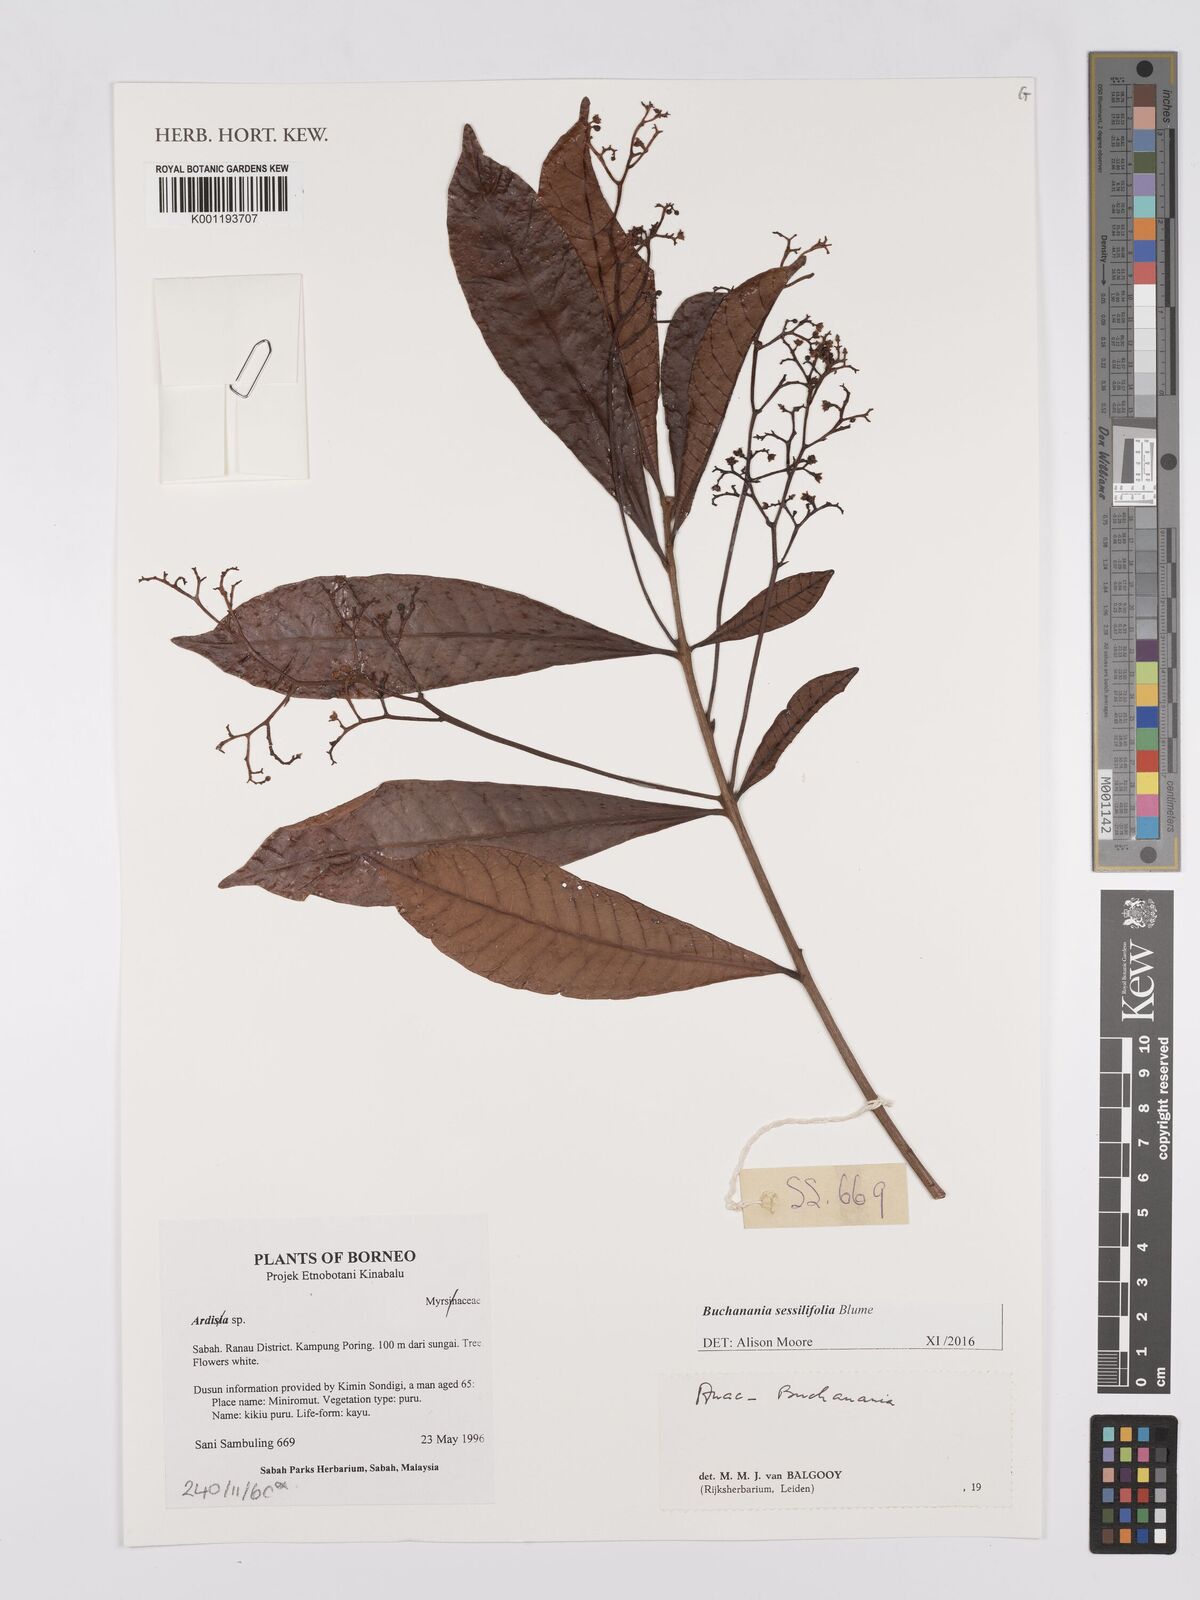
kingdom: Plantae
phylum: Tracheophyta
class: Magnoliopsida
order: Sapindales
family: Anacardiaceae
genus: Buchanania
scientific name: Buchanania sessifolia
